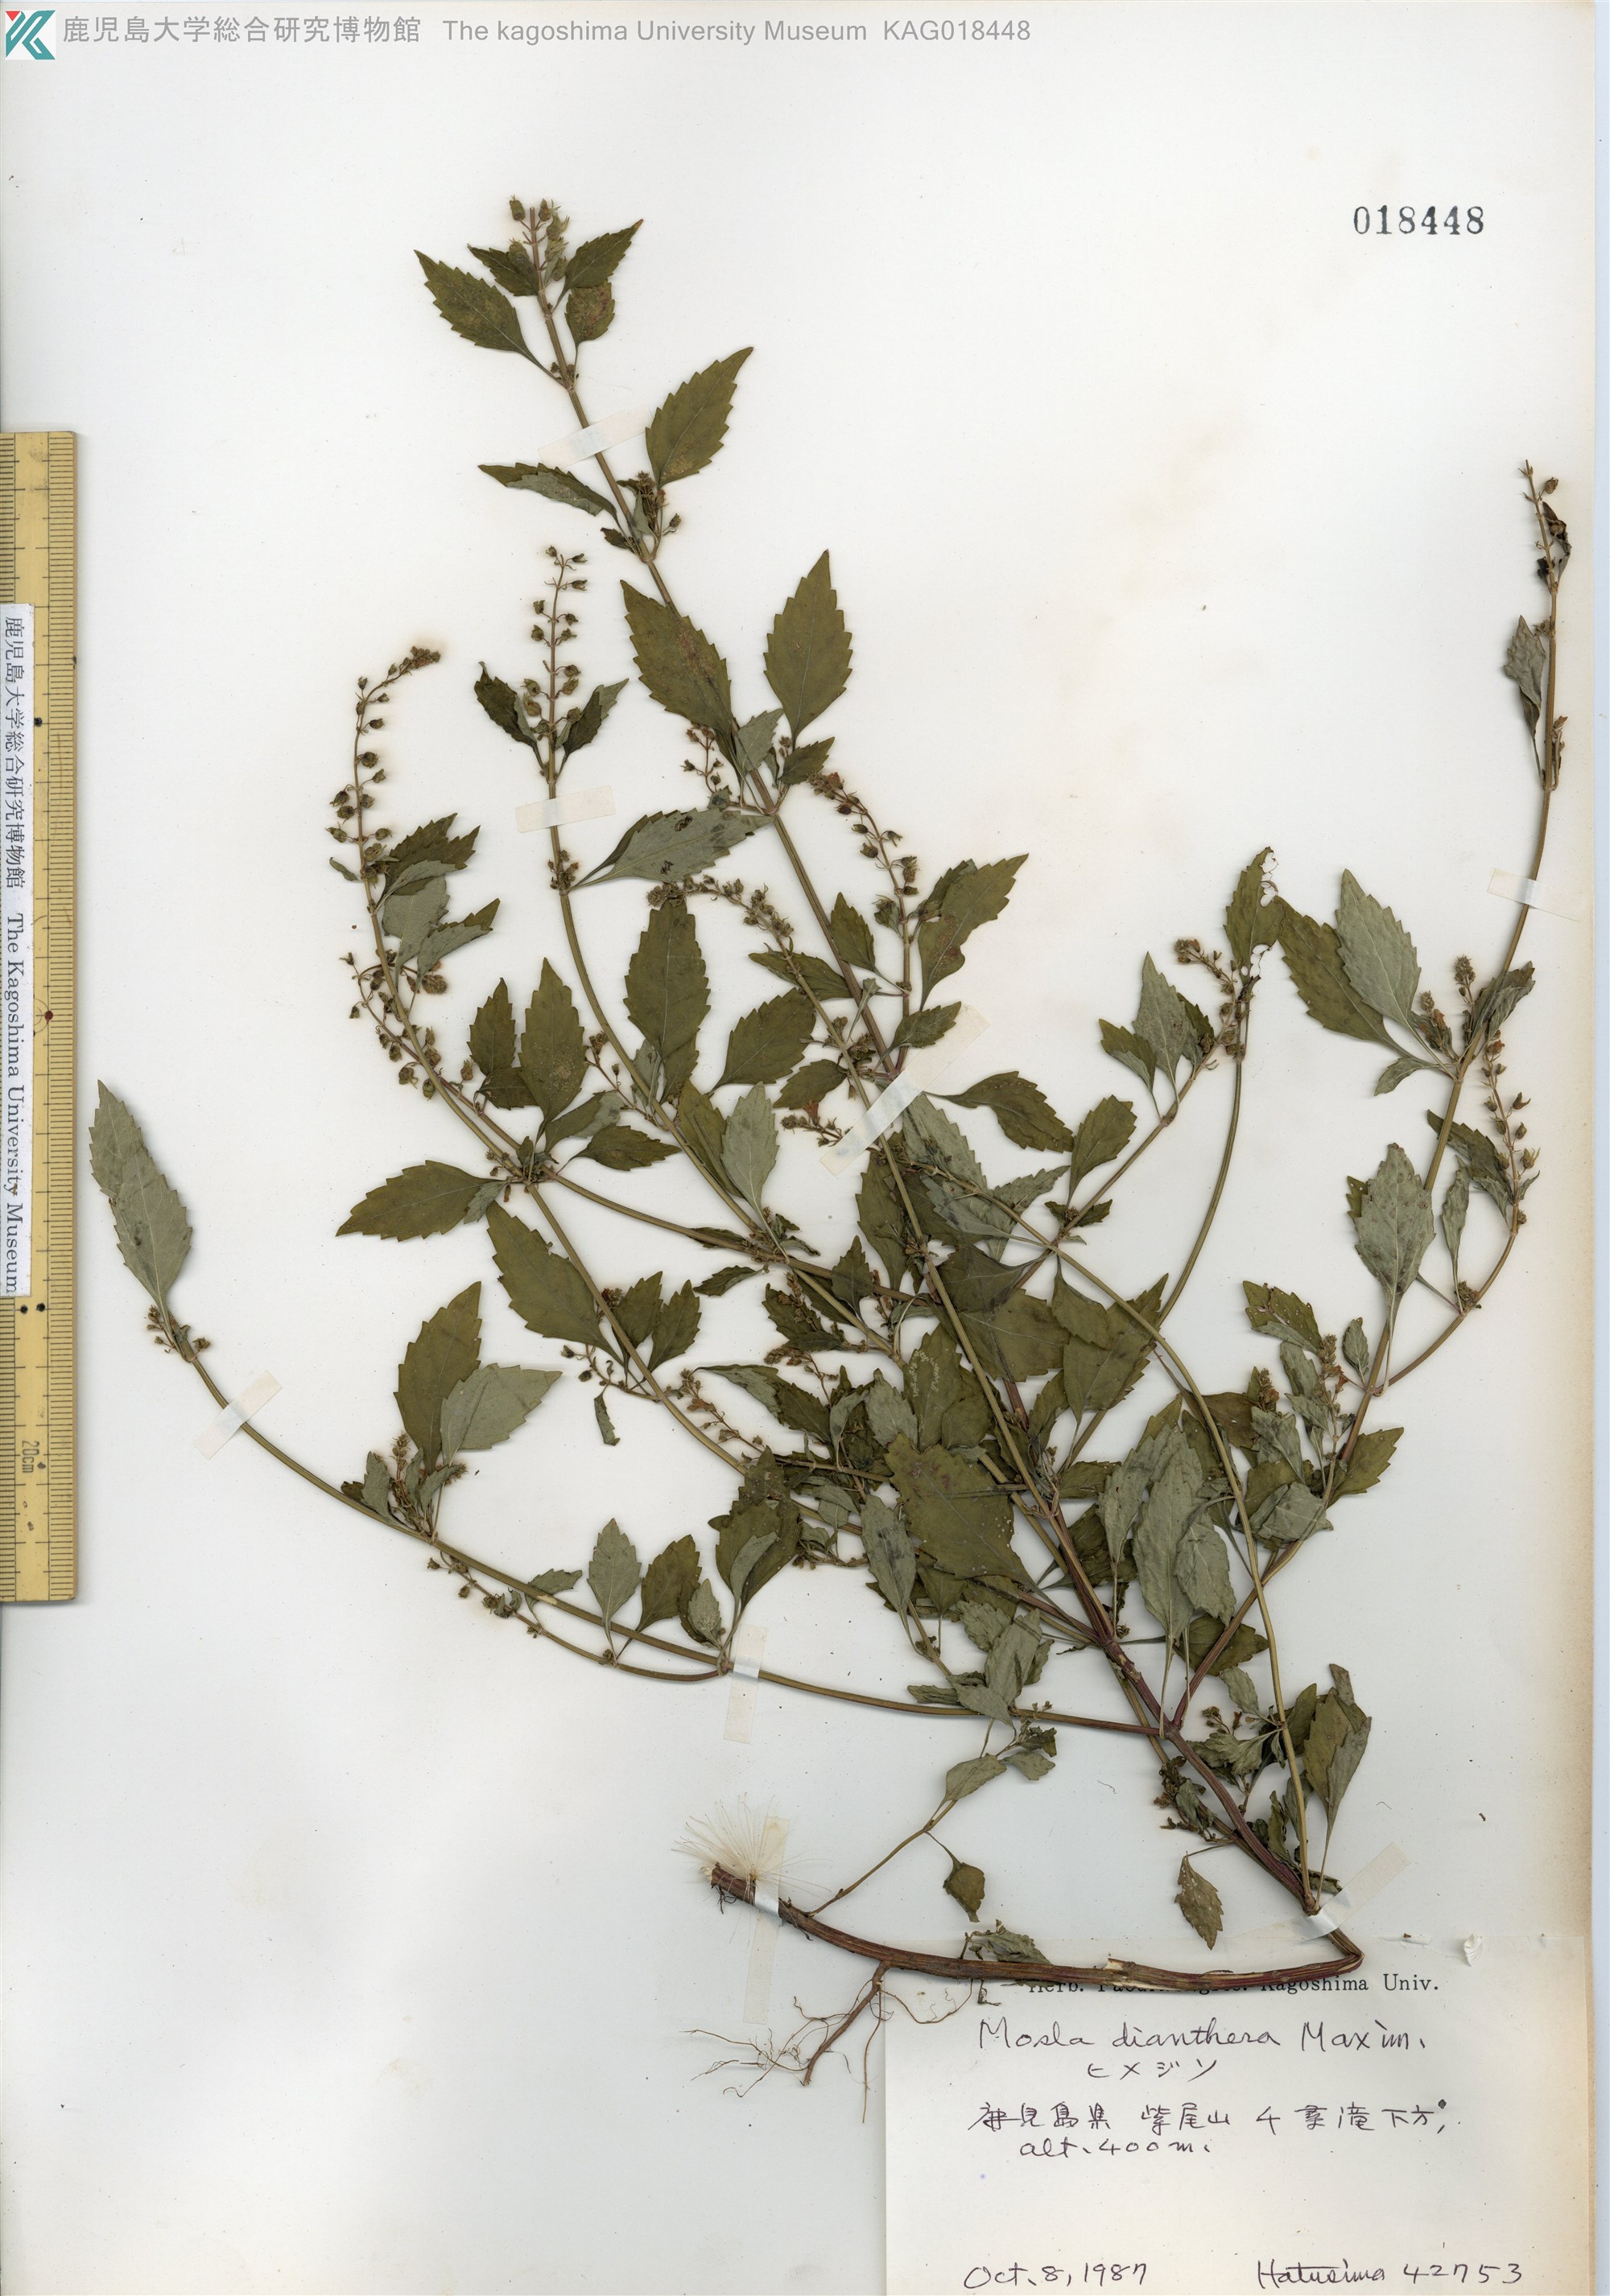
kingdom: Plantae
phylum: Tracheophyta
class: Magnoliopsida
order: Lamiales
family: Lamiaceae
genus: Mosla
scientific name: Mosla dianthera
